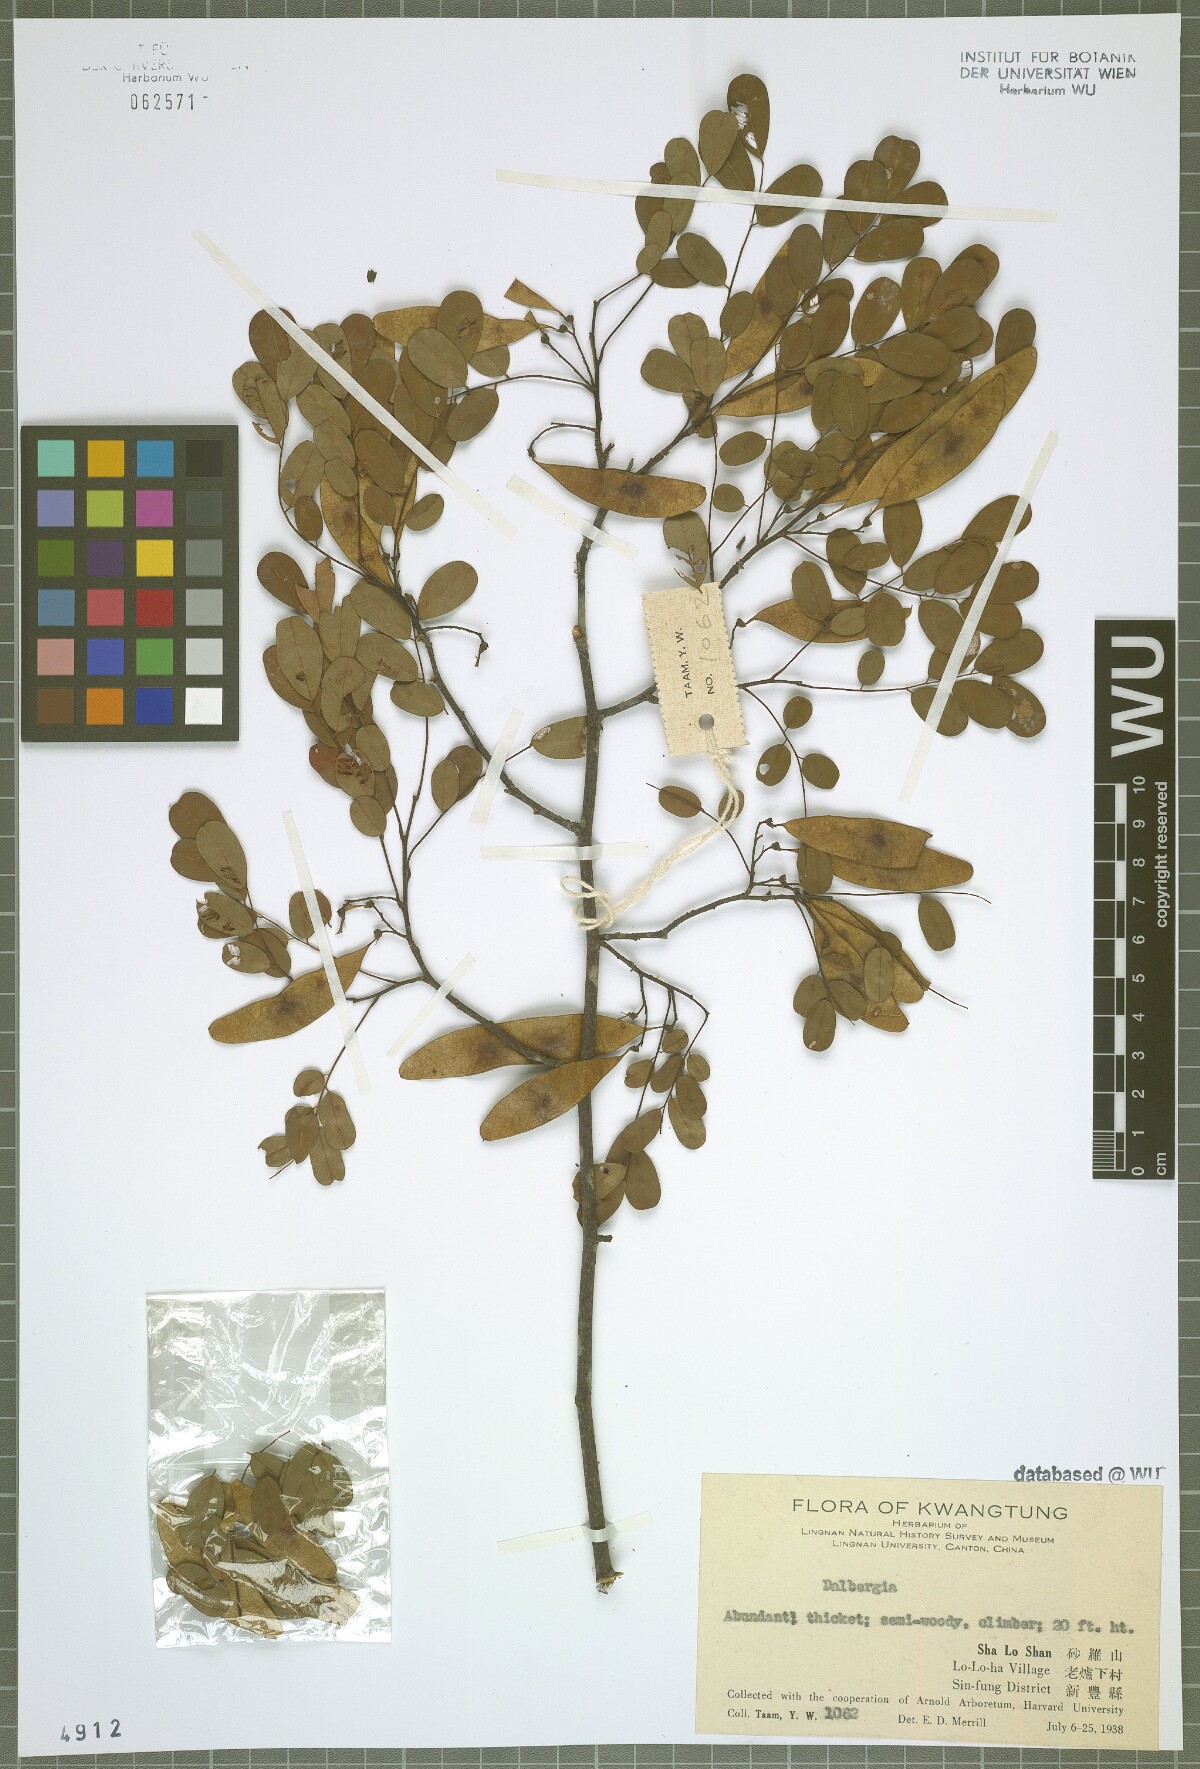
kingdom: Plantae
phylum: Tracheophyta
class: Magnoliopsida
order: Fabales
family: Fabaceae
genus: Dalbergia
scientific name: Dalbergia
